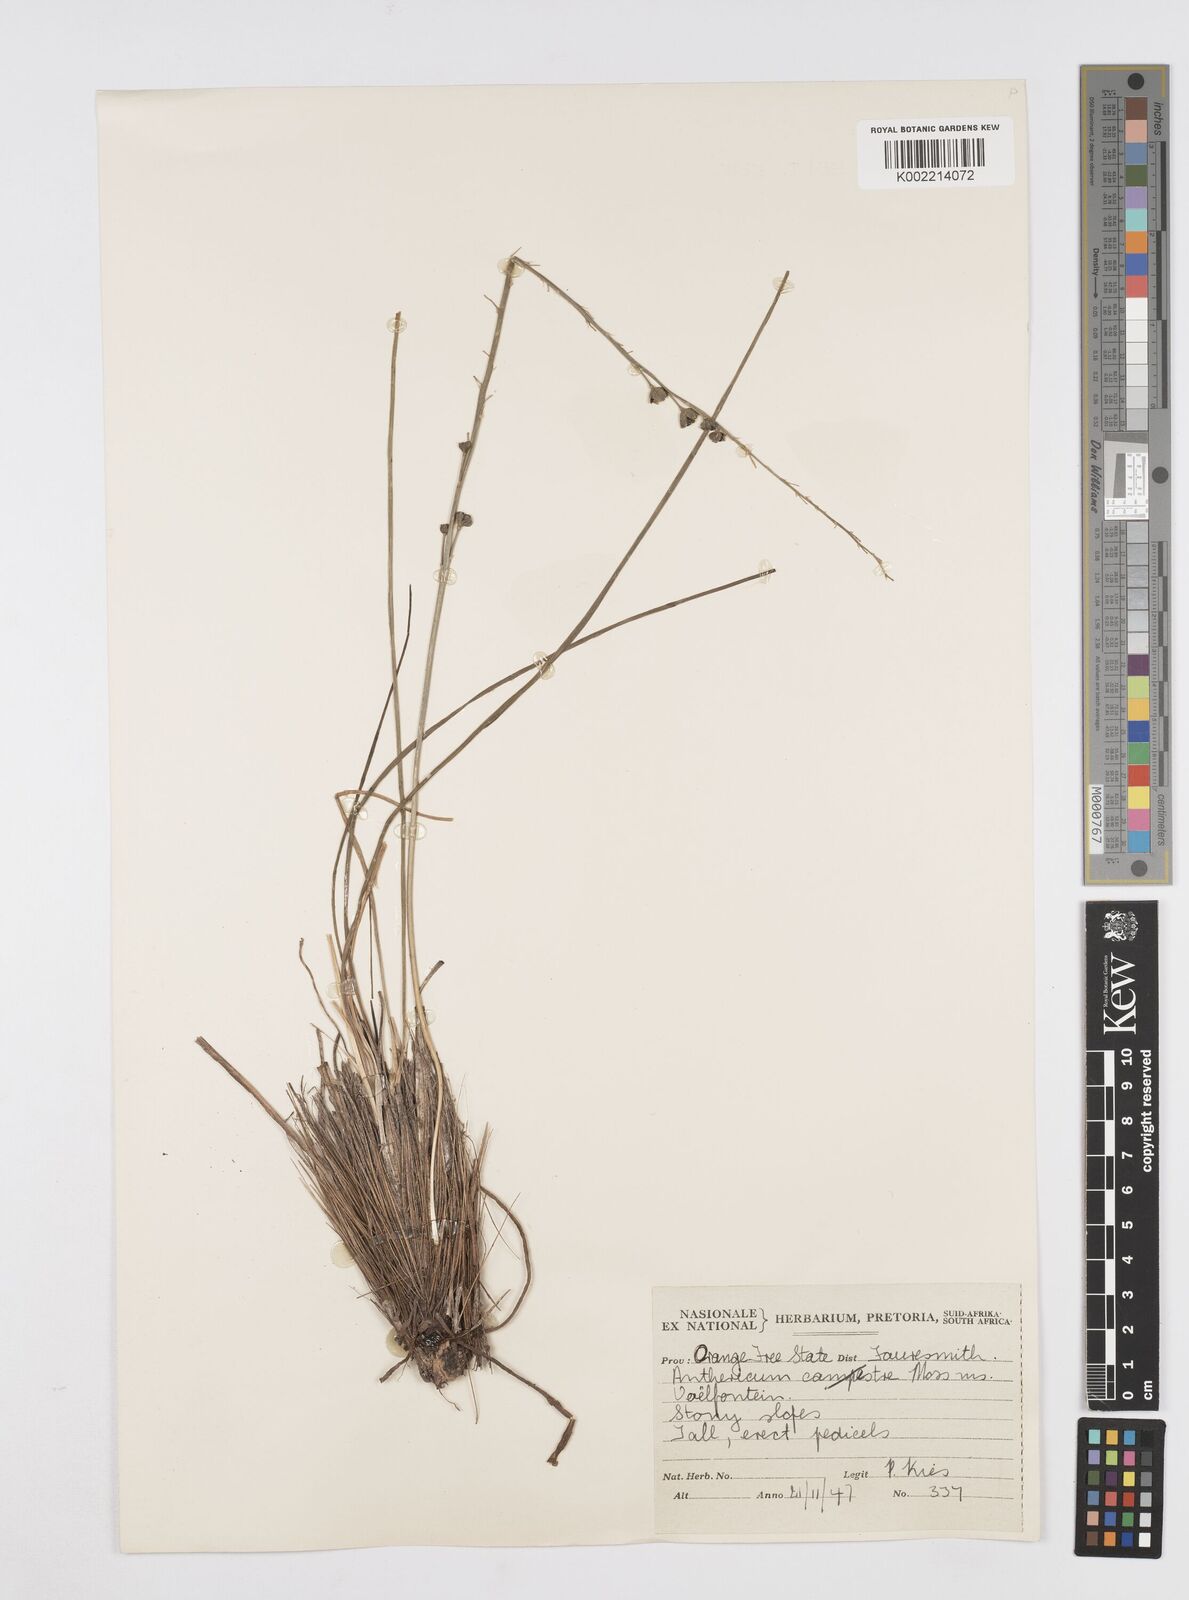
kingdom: Plantae
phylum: Tracheophyta
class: Liliopsida
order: Asparagales
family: Asphodelaceae
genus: Trachyandra
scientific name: Trachyandra
